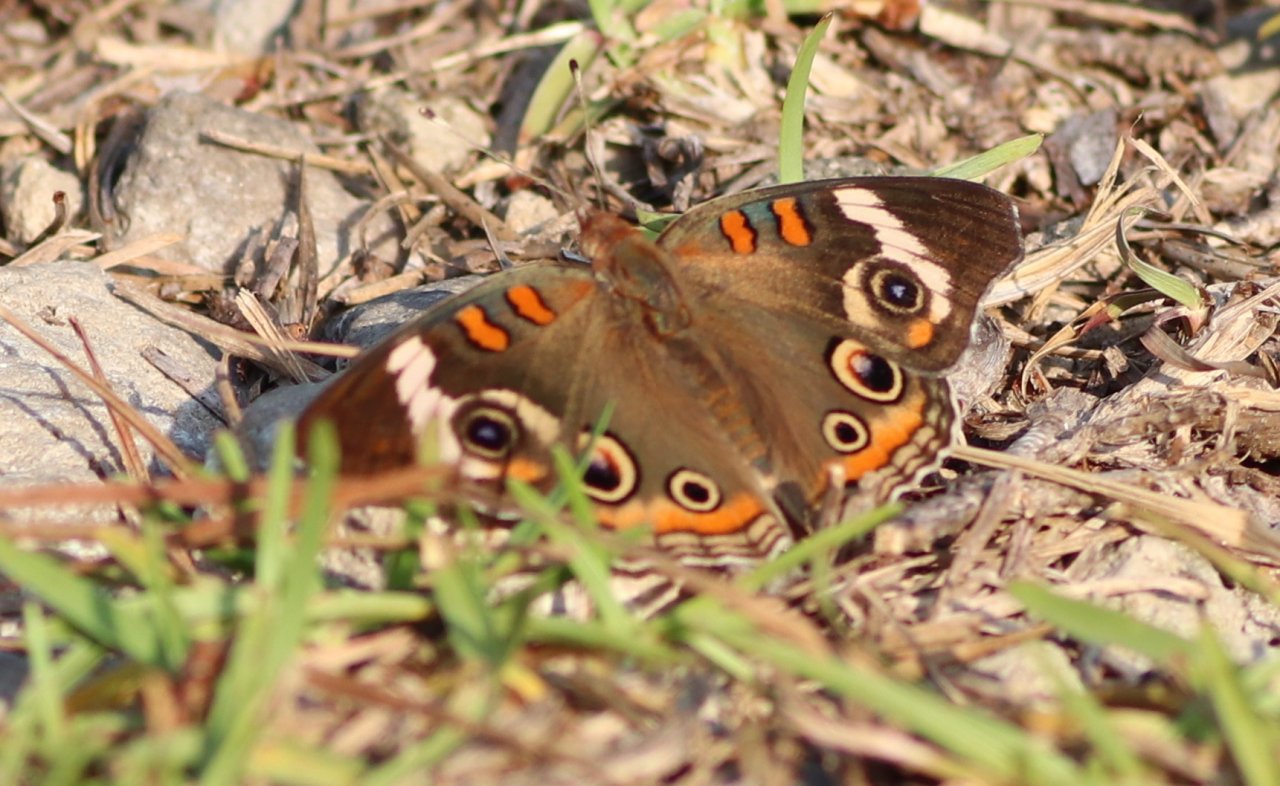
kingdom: Animalia
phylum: Arthropoda
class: Insecta
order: Lepidoptera
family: Nymphalidae
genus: Junonia
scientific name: Junonia coenia
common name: Common Buckeye
